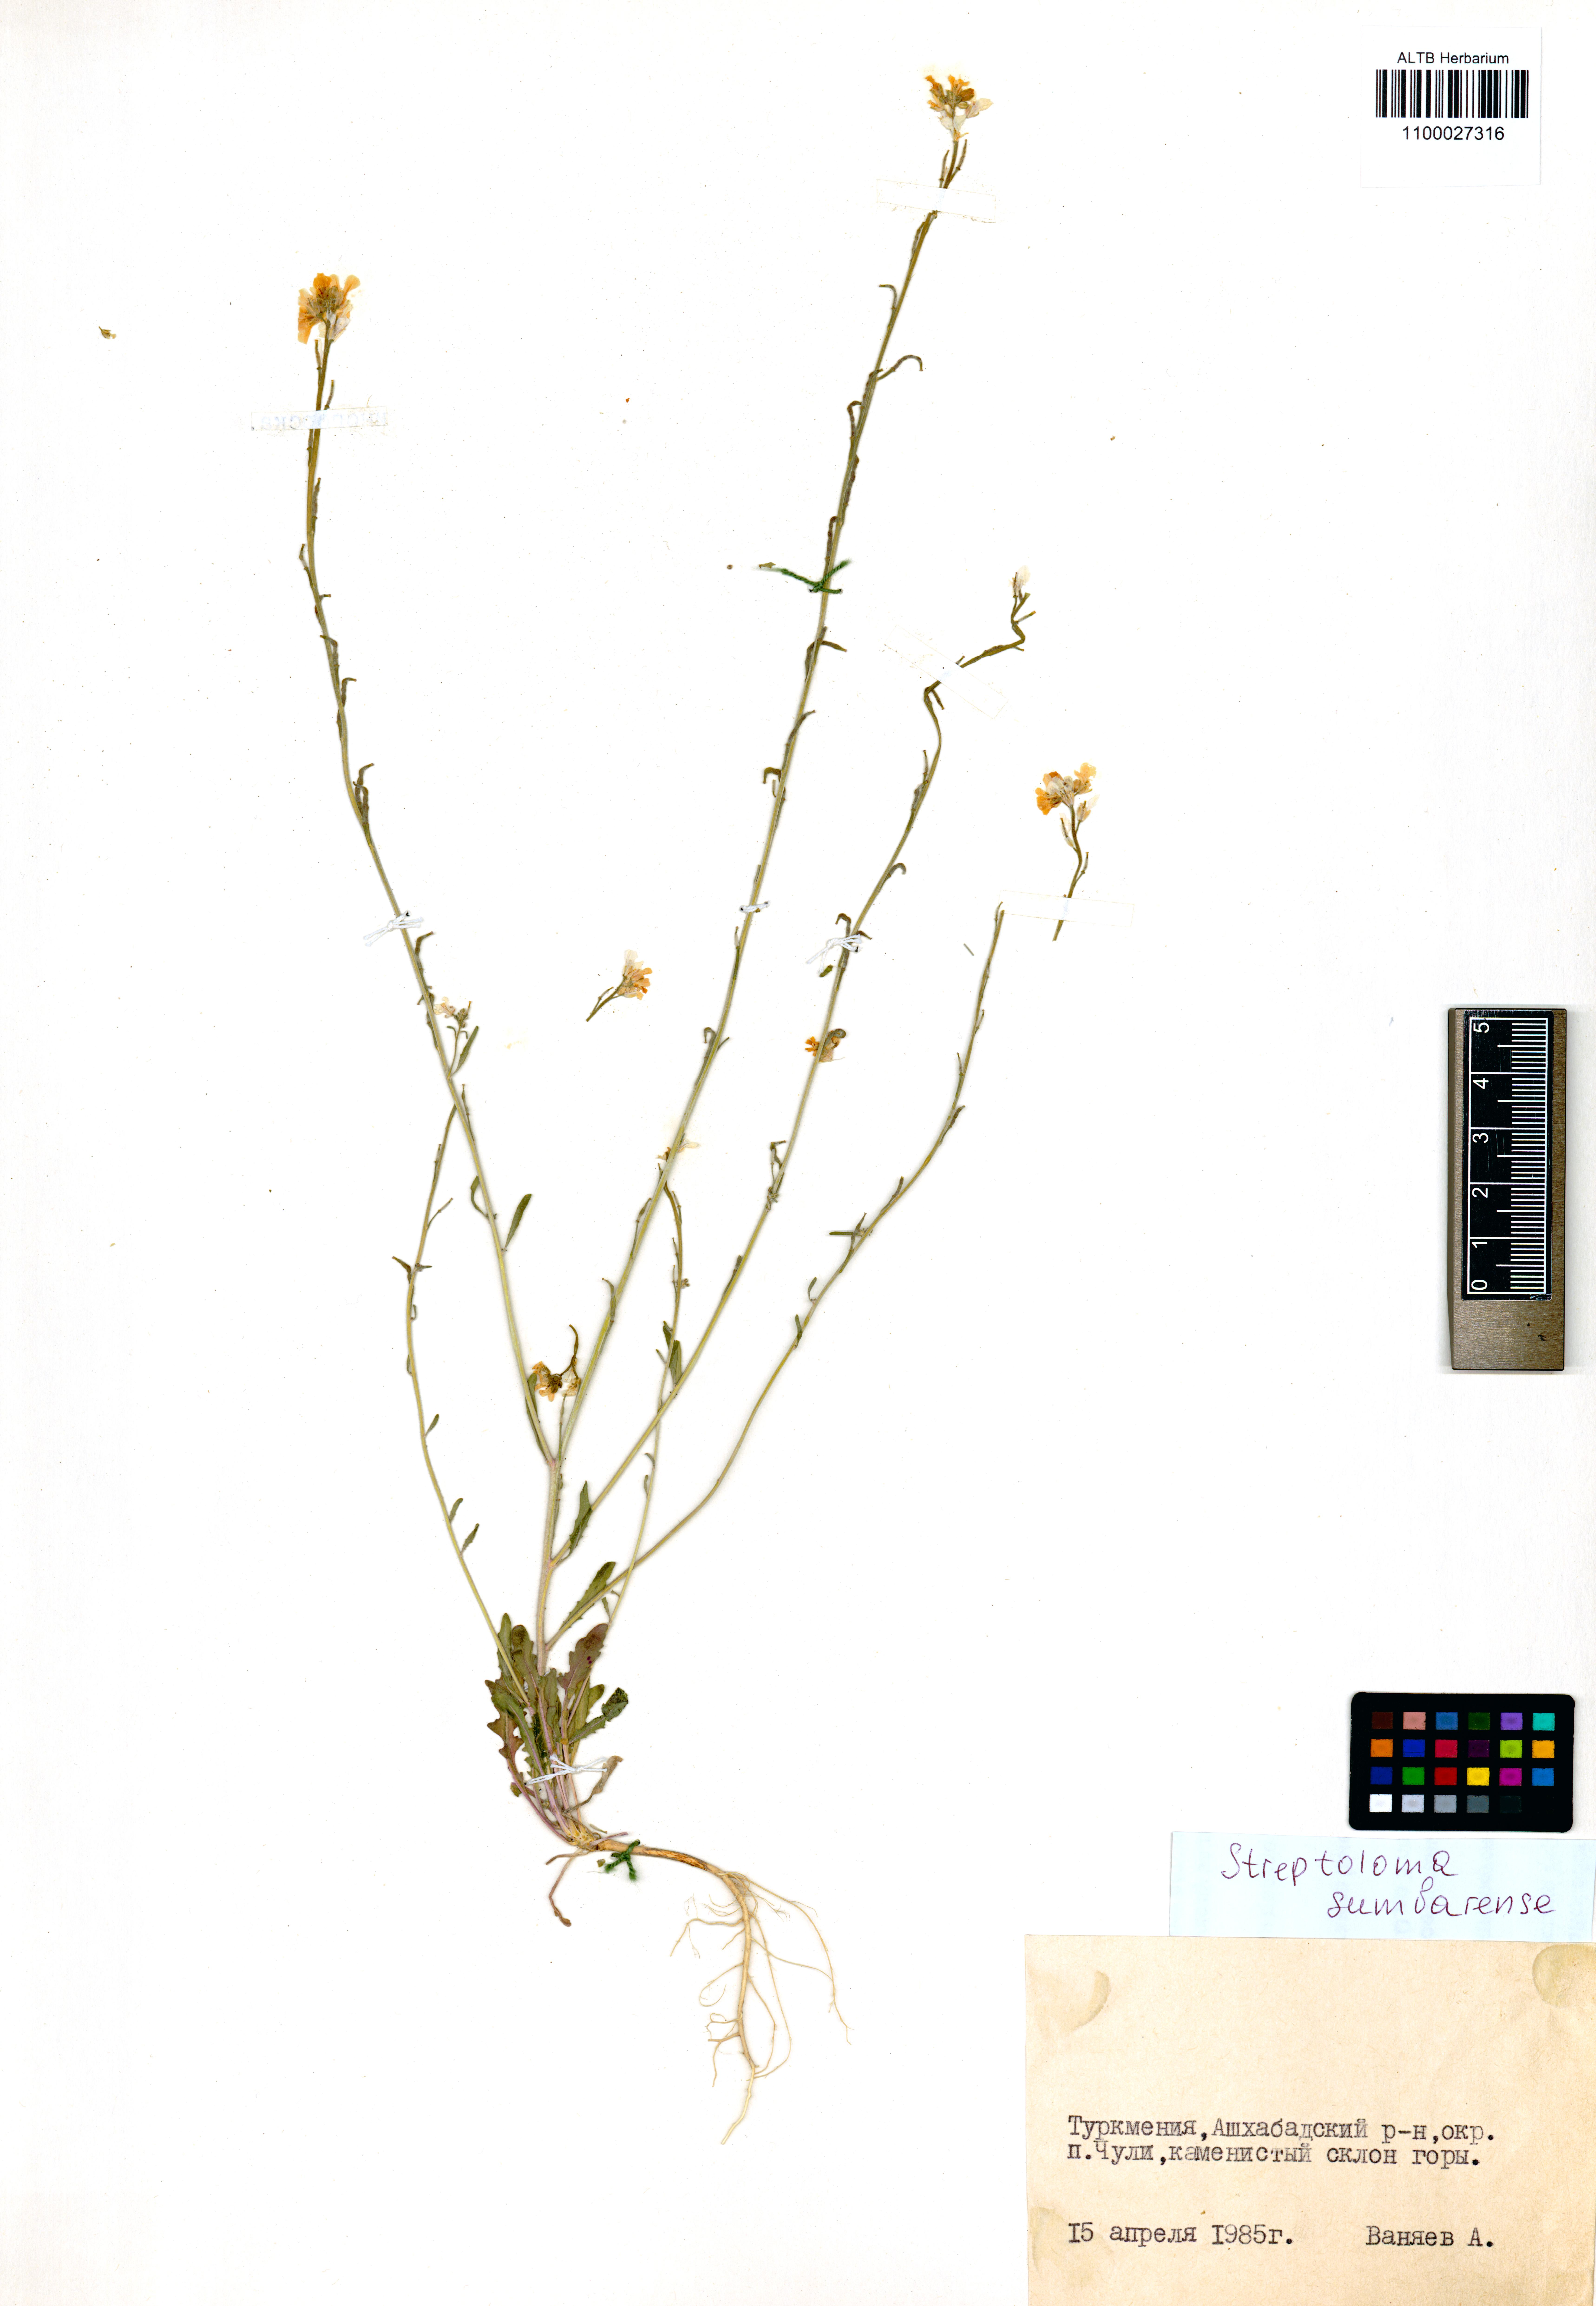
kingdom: Plantae
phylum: Tracheophyta
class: Magnoliopsida
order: Brassicales
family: Brassicaceae
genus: Streptoloma
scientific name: Streptoloma sumbarense
